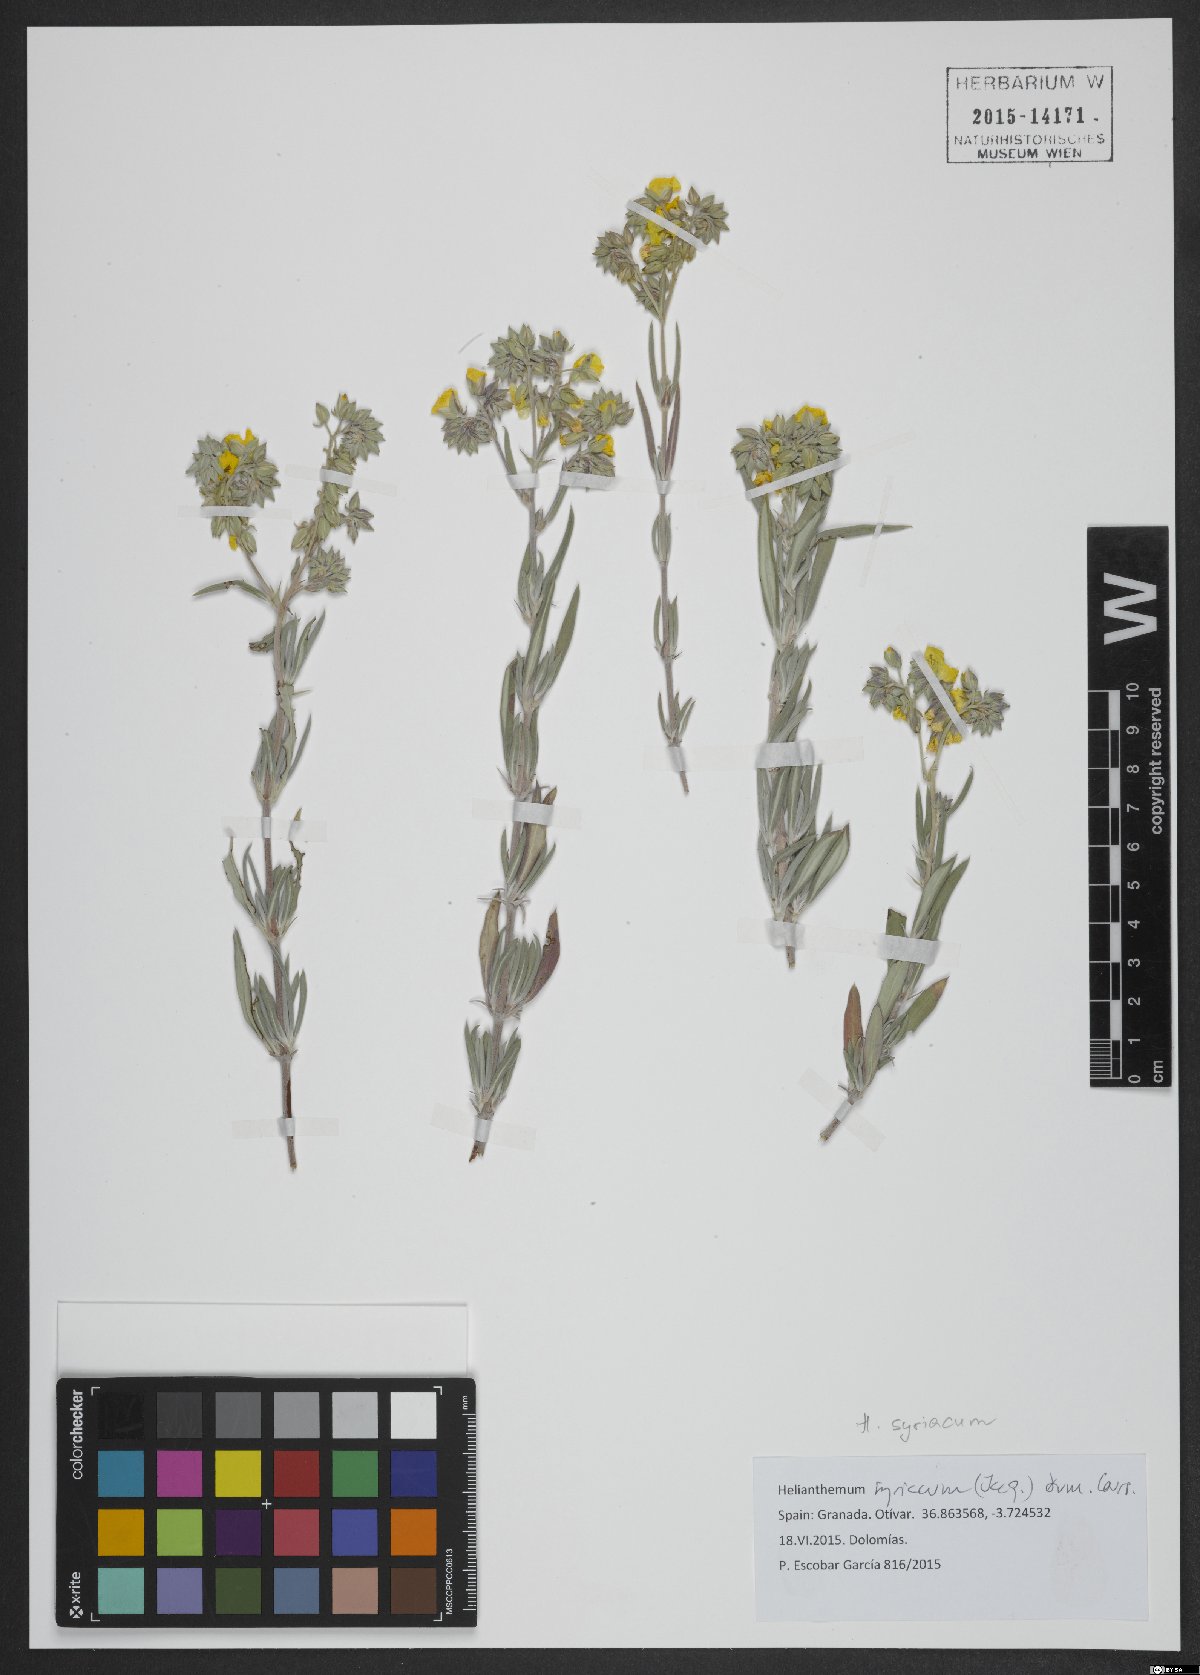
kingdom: Plantae
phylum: Tracheophyta
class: Magnoliopsida
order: Malvales
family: Cistaceae
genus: Helianthemum
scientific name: Helianthemum syriacum
